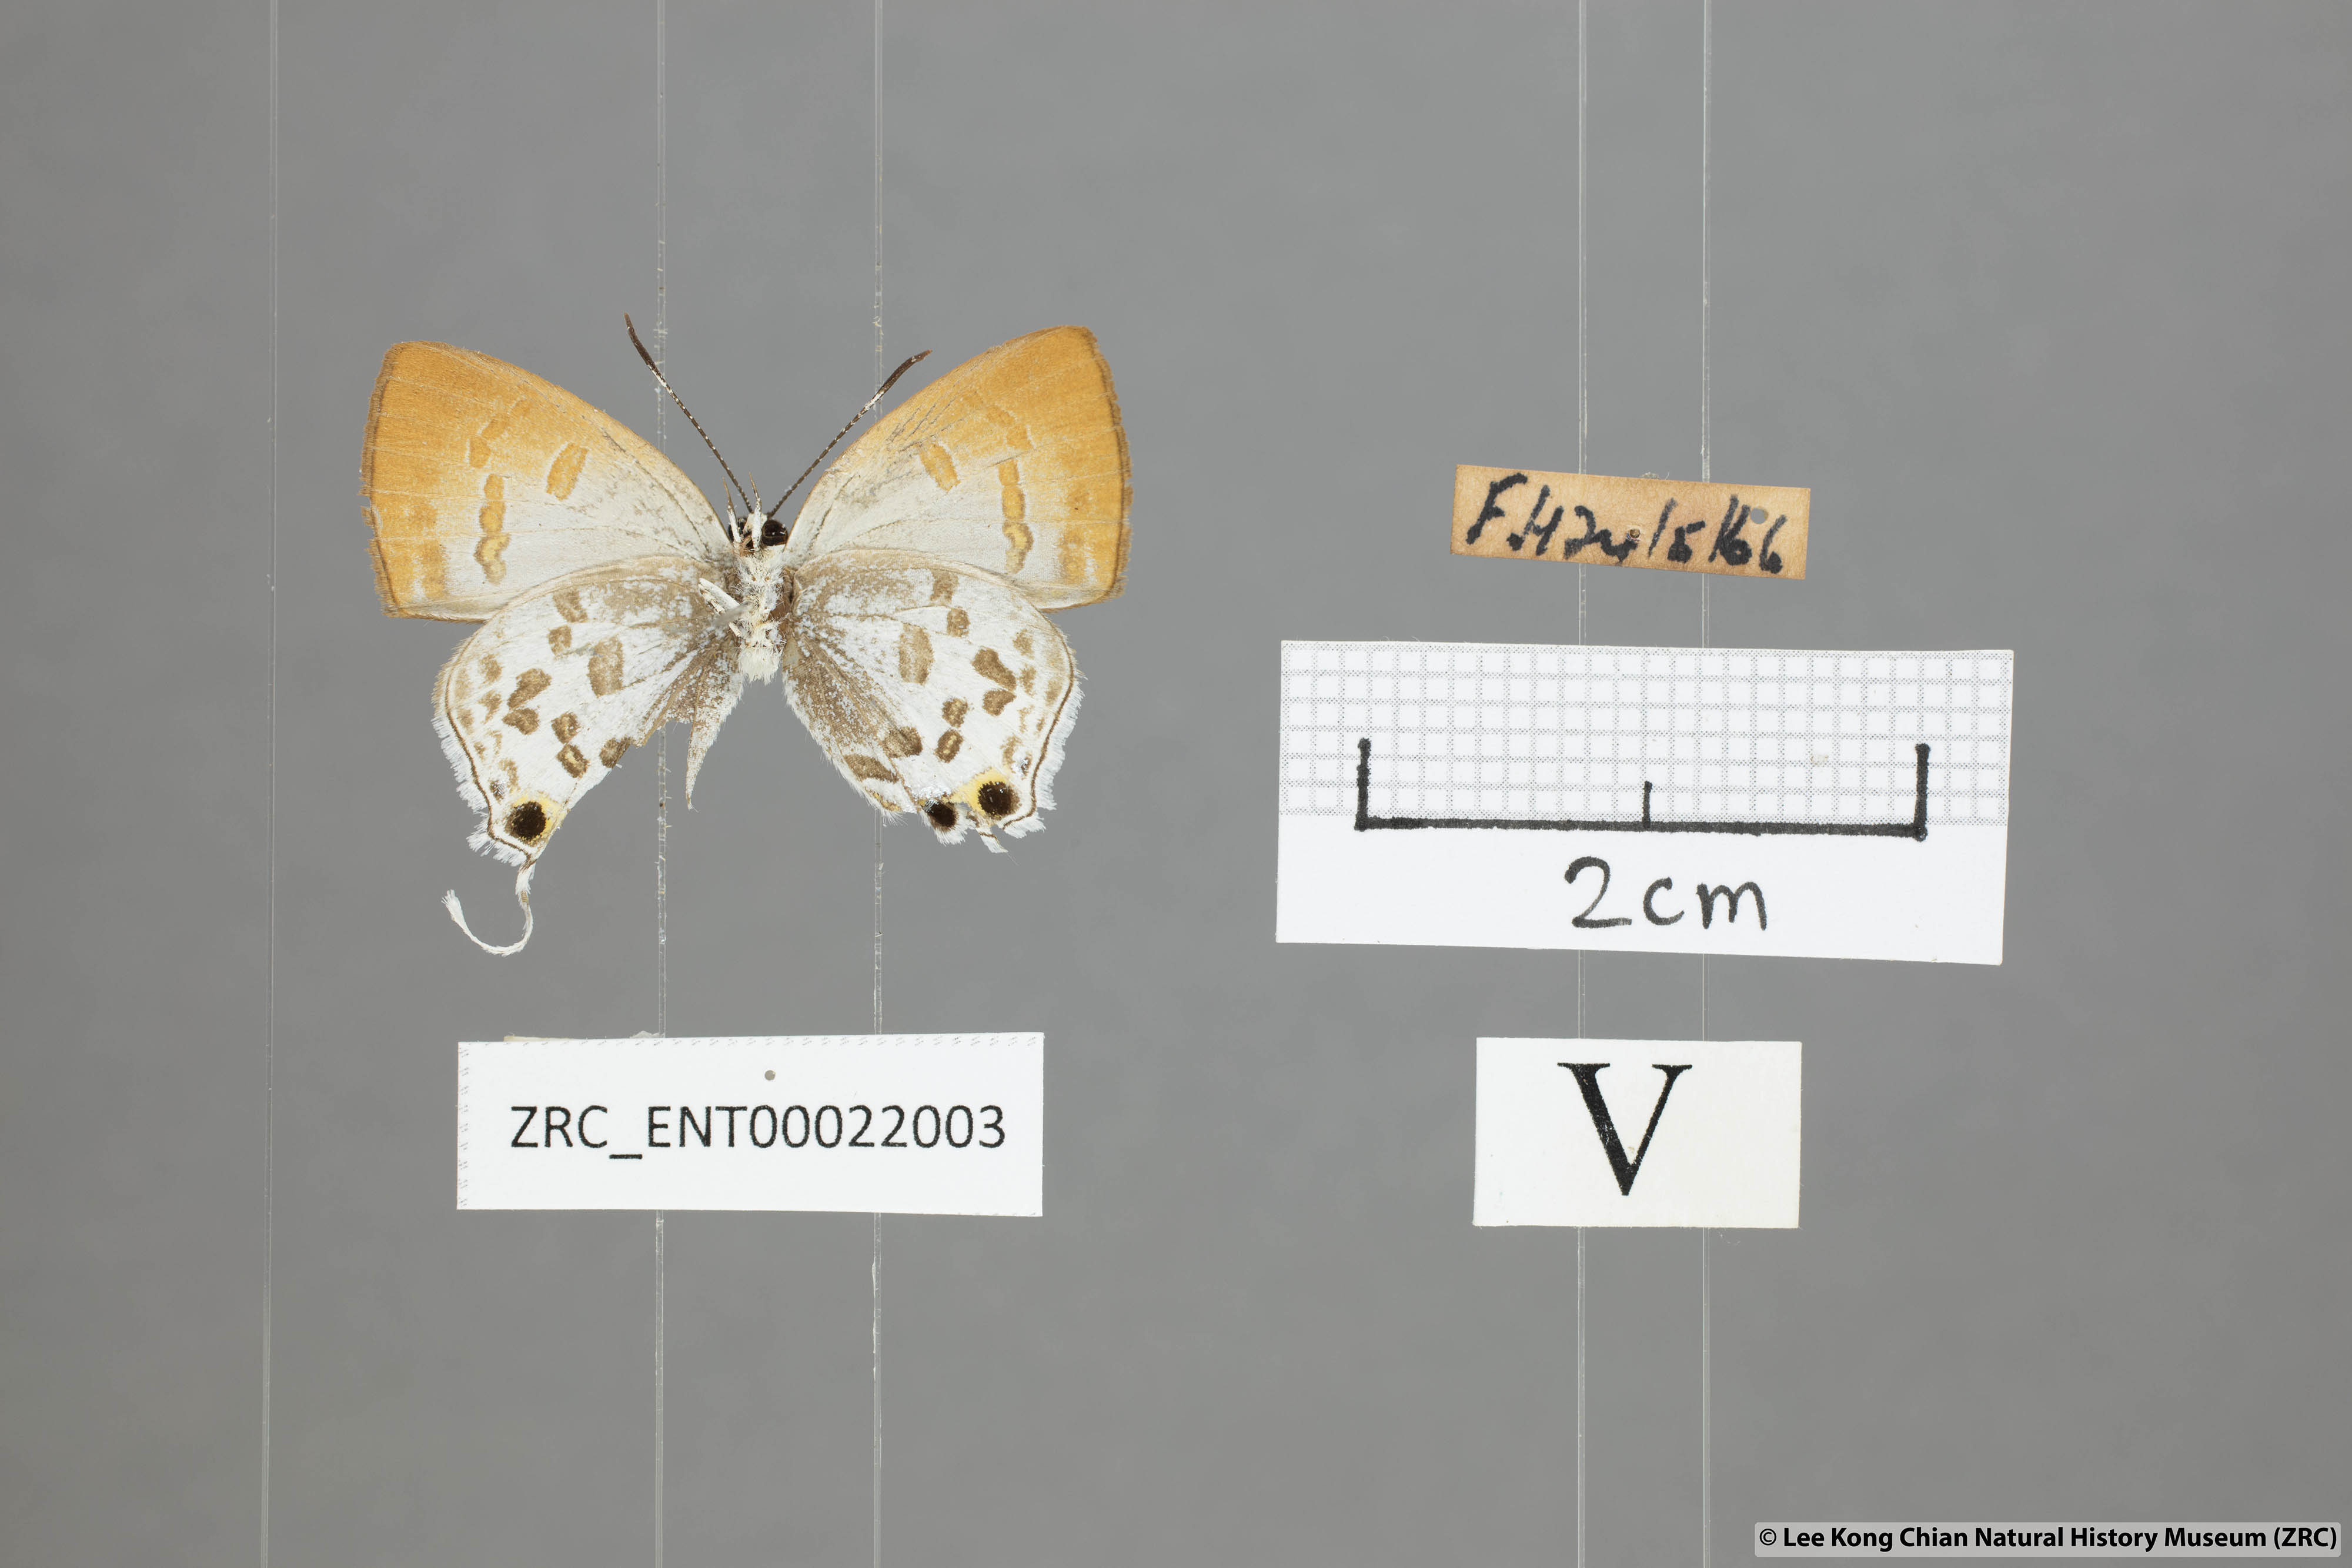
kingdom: Animalia
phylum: Arthropoda
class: Insecta
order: Lepidoptera
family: Lycaenidae
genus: Sinthusa
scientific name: Sinthusa malika
